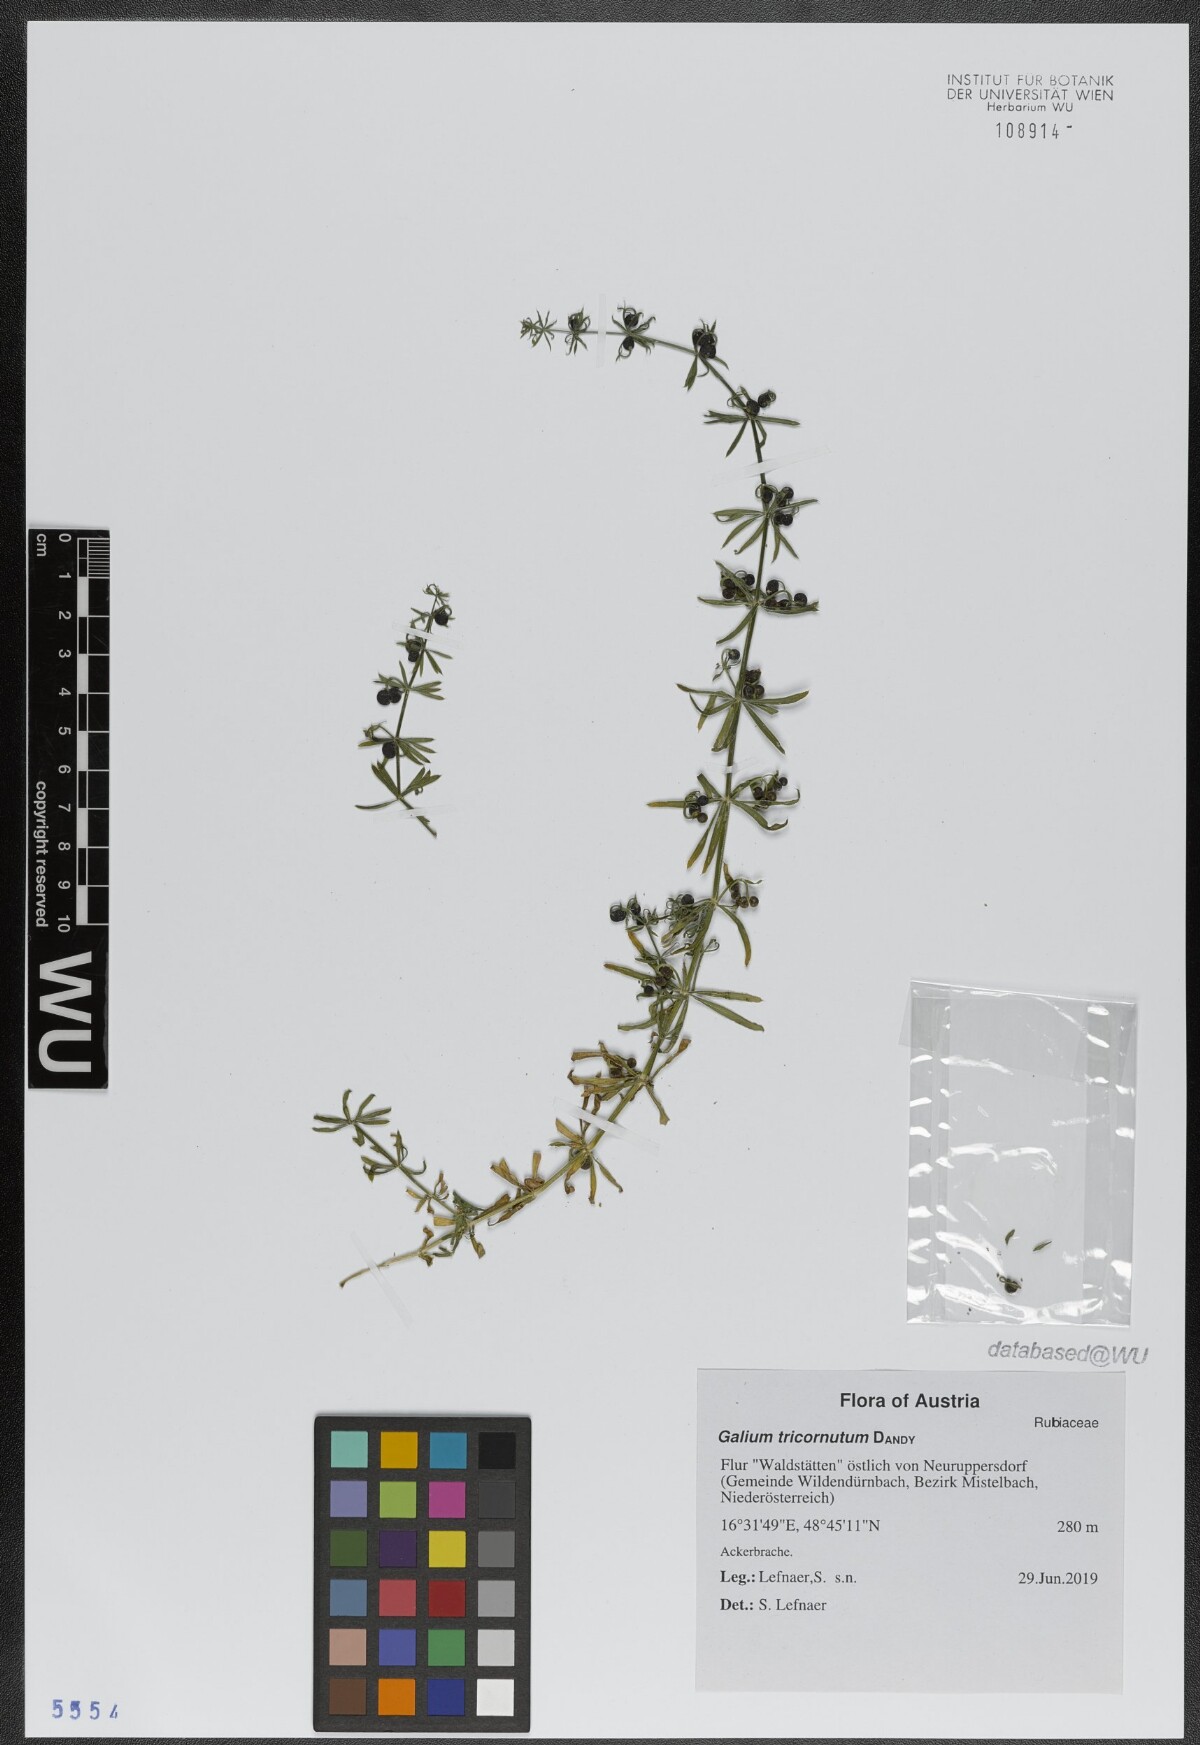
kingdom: Plantae
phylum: Tracheophyta
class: Magnoliopsida
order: Gentianales
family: Rubiaceae
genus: Galium
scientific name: Galium tricornutum
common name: Corn cleavers
